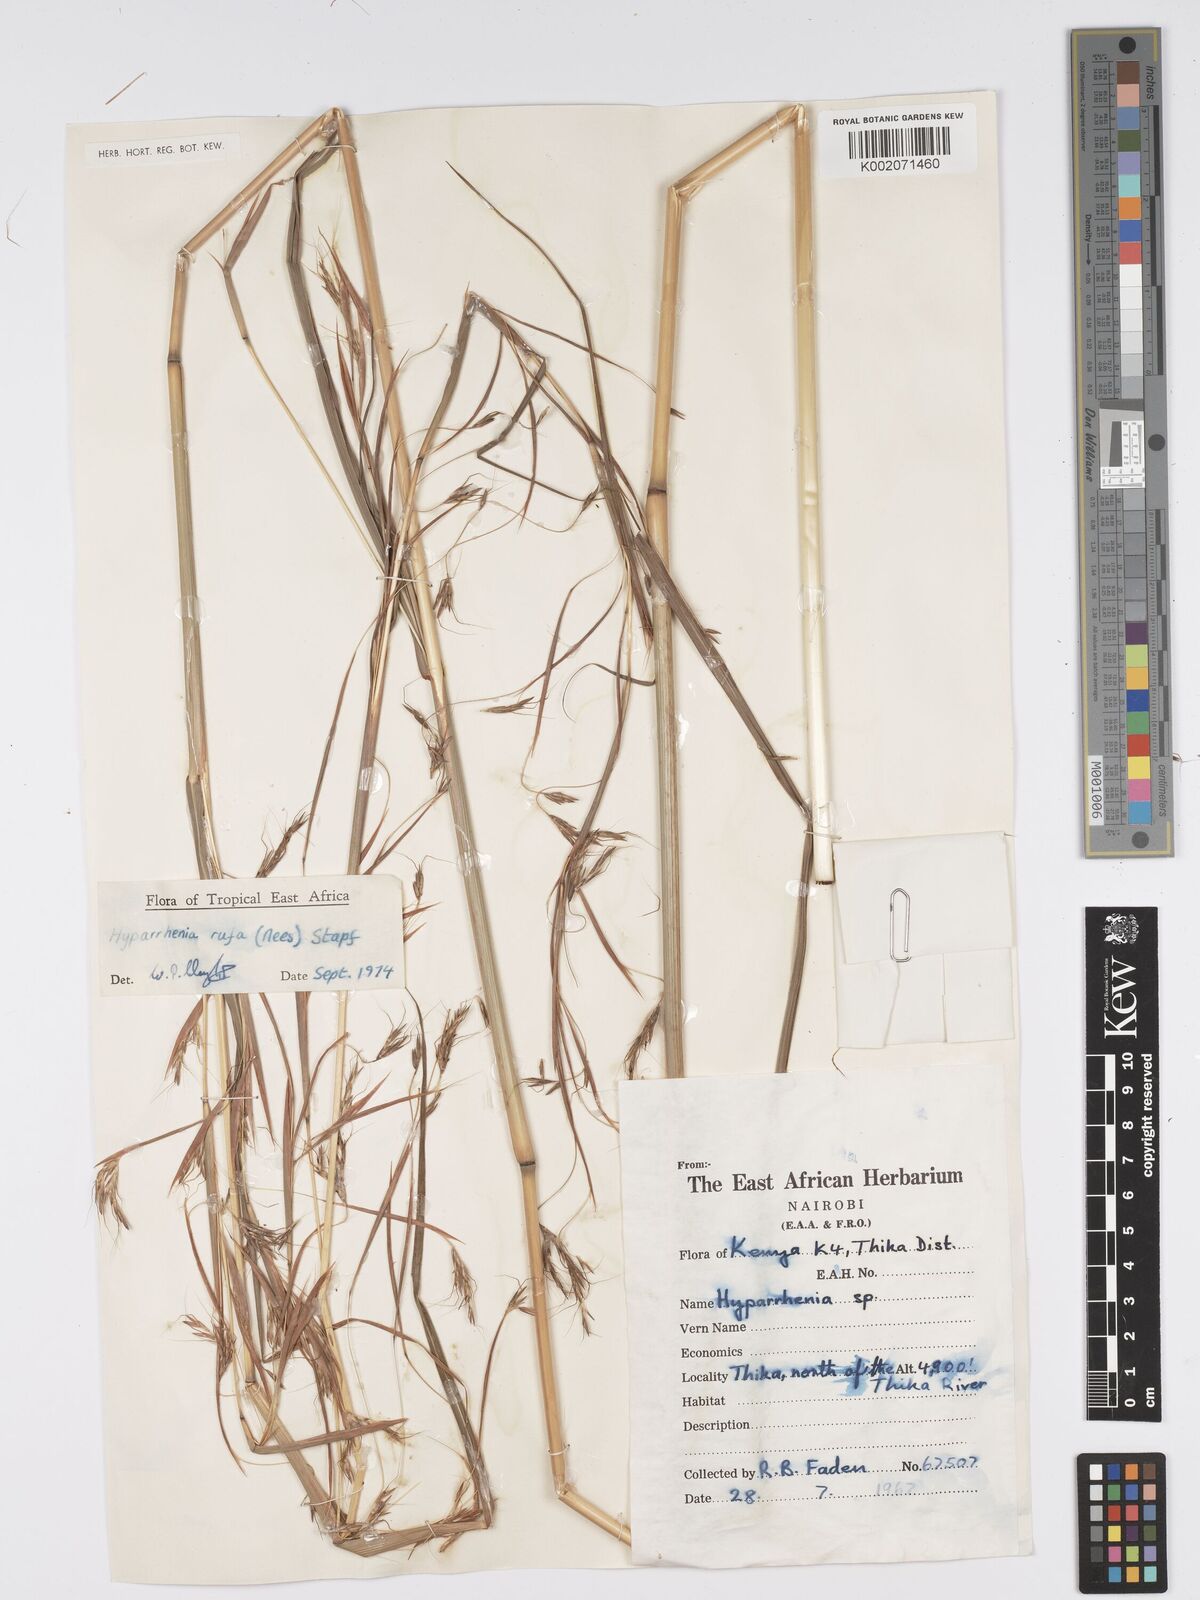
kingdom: Plantae
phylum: Tracheophyta
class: Liliopsida
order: Poales
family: Poaceae
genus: Hyparrhenia
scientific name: Hyparrhenia rufa
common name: Jaraguagrass
